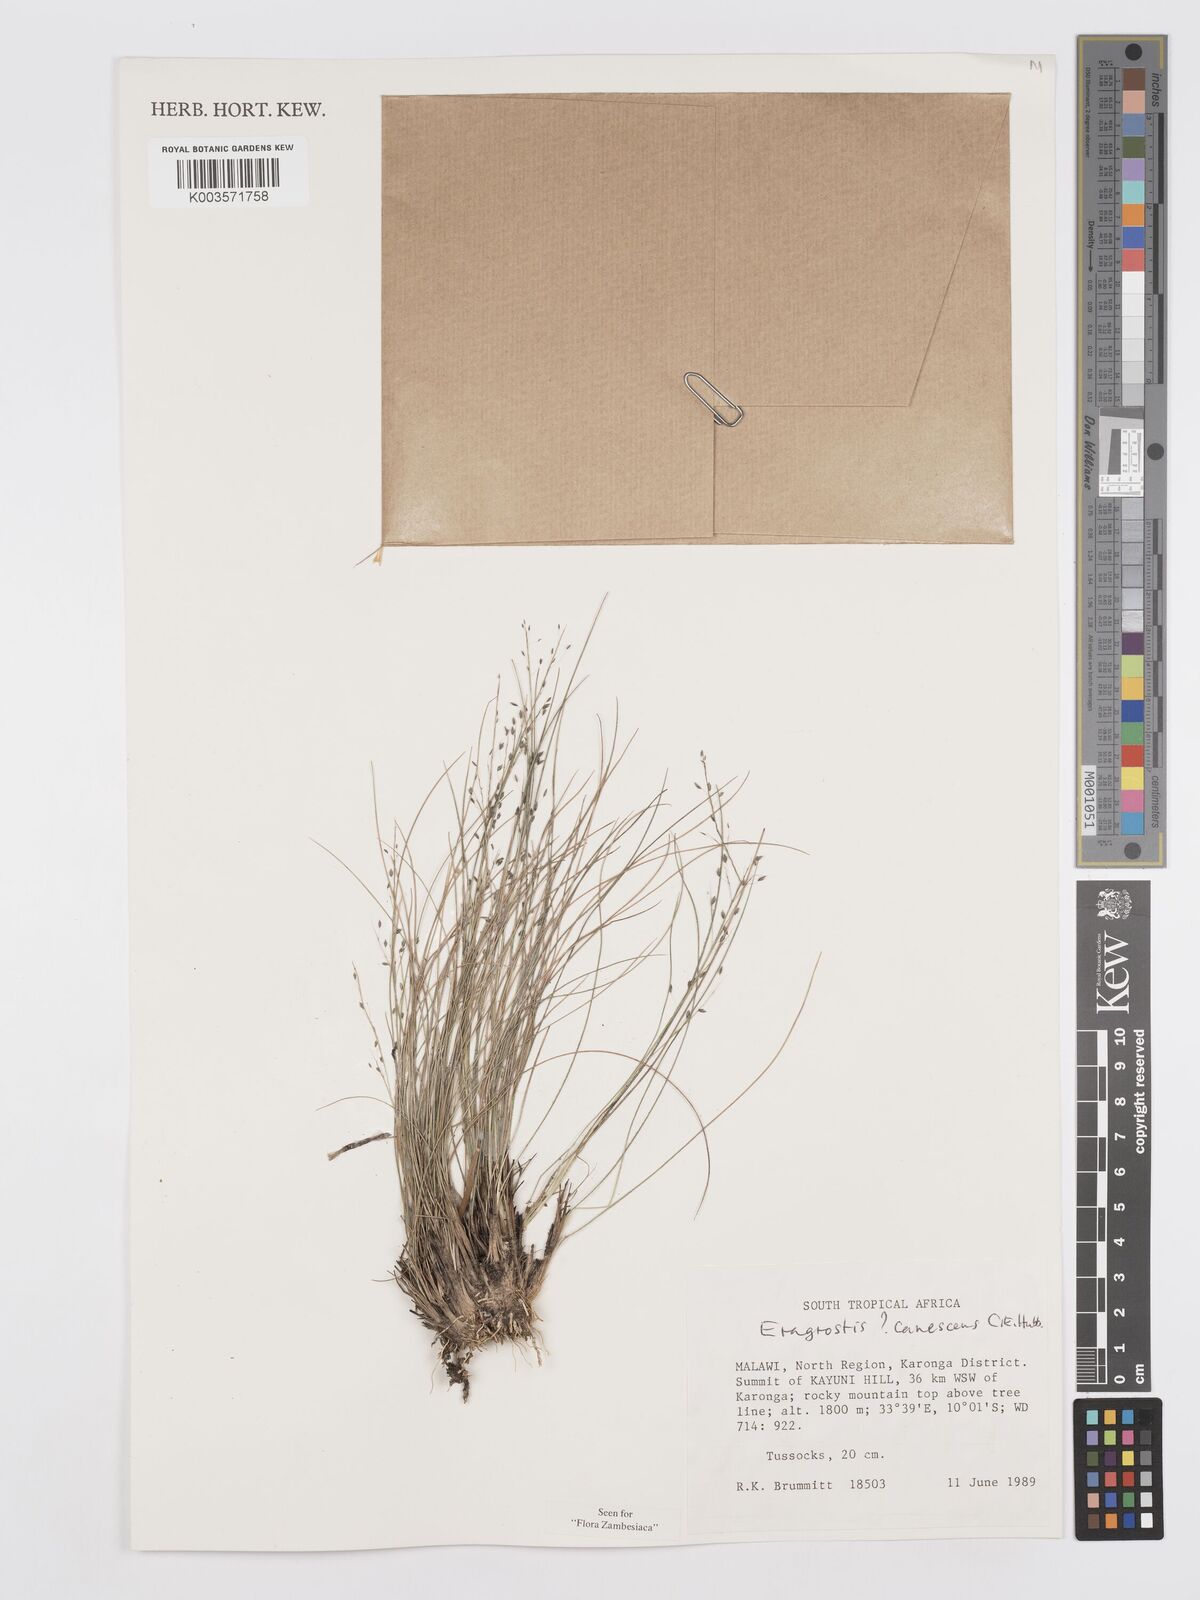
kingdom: Plantae
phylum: Tracheophyta
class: Liliopsida
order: Poales
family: Poaceae
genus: Eragrostis
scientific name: Eragrostis canescens
